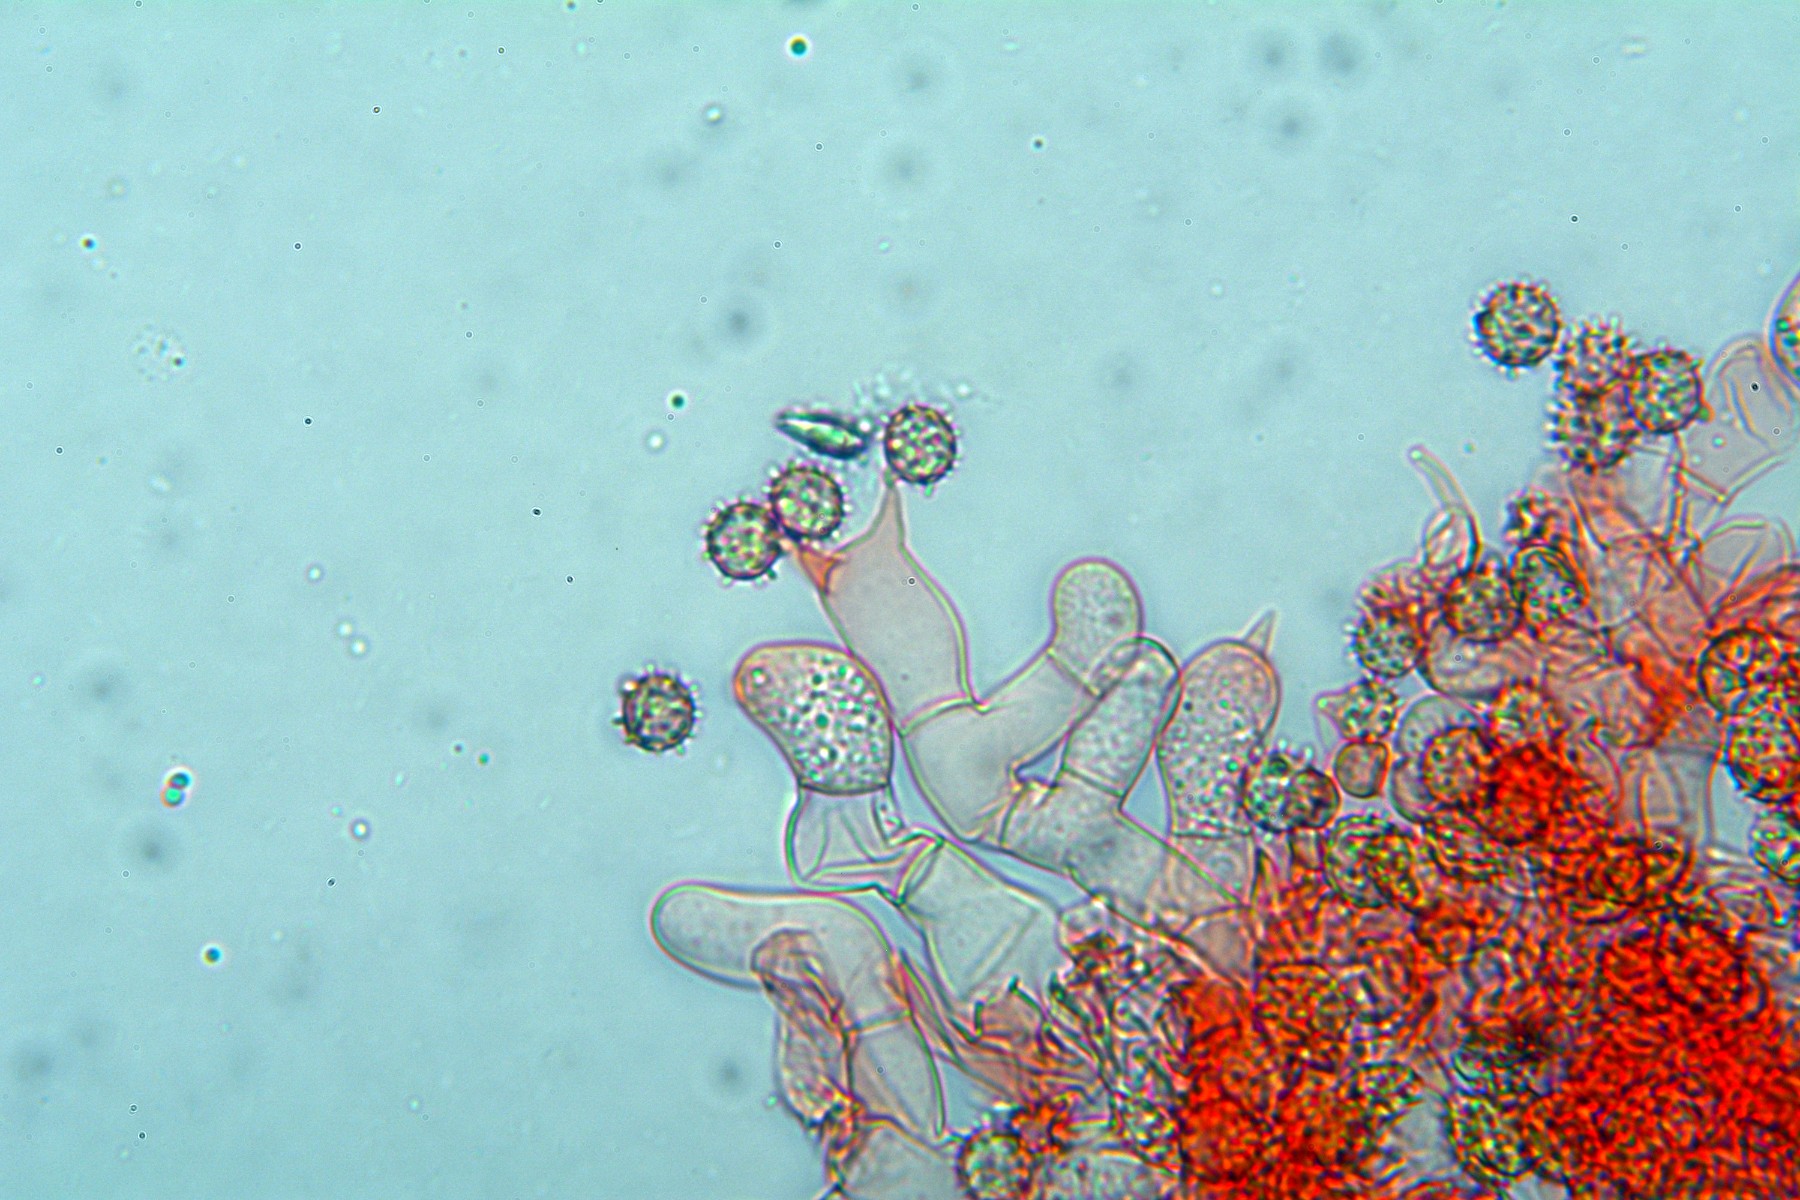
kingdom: Fungi
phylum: Basidiomycota
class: Agaricomycetes
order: Cantharellales
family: Botryobasidiaceae
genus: Botryobasidium
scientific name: Botryobasidium isabellinum
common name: isabellafarvet spindhinde
